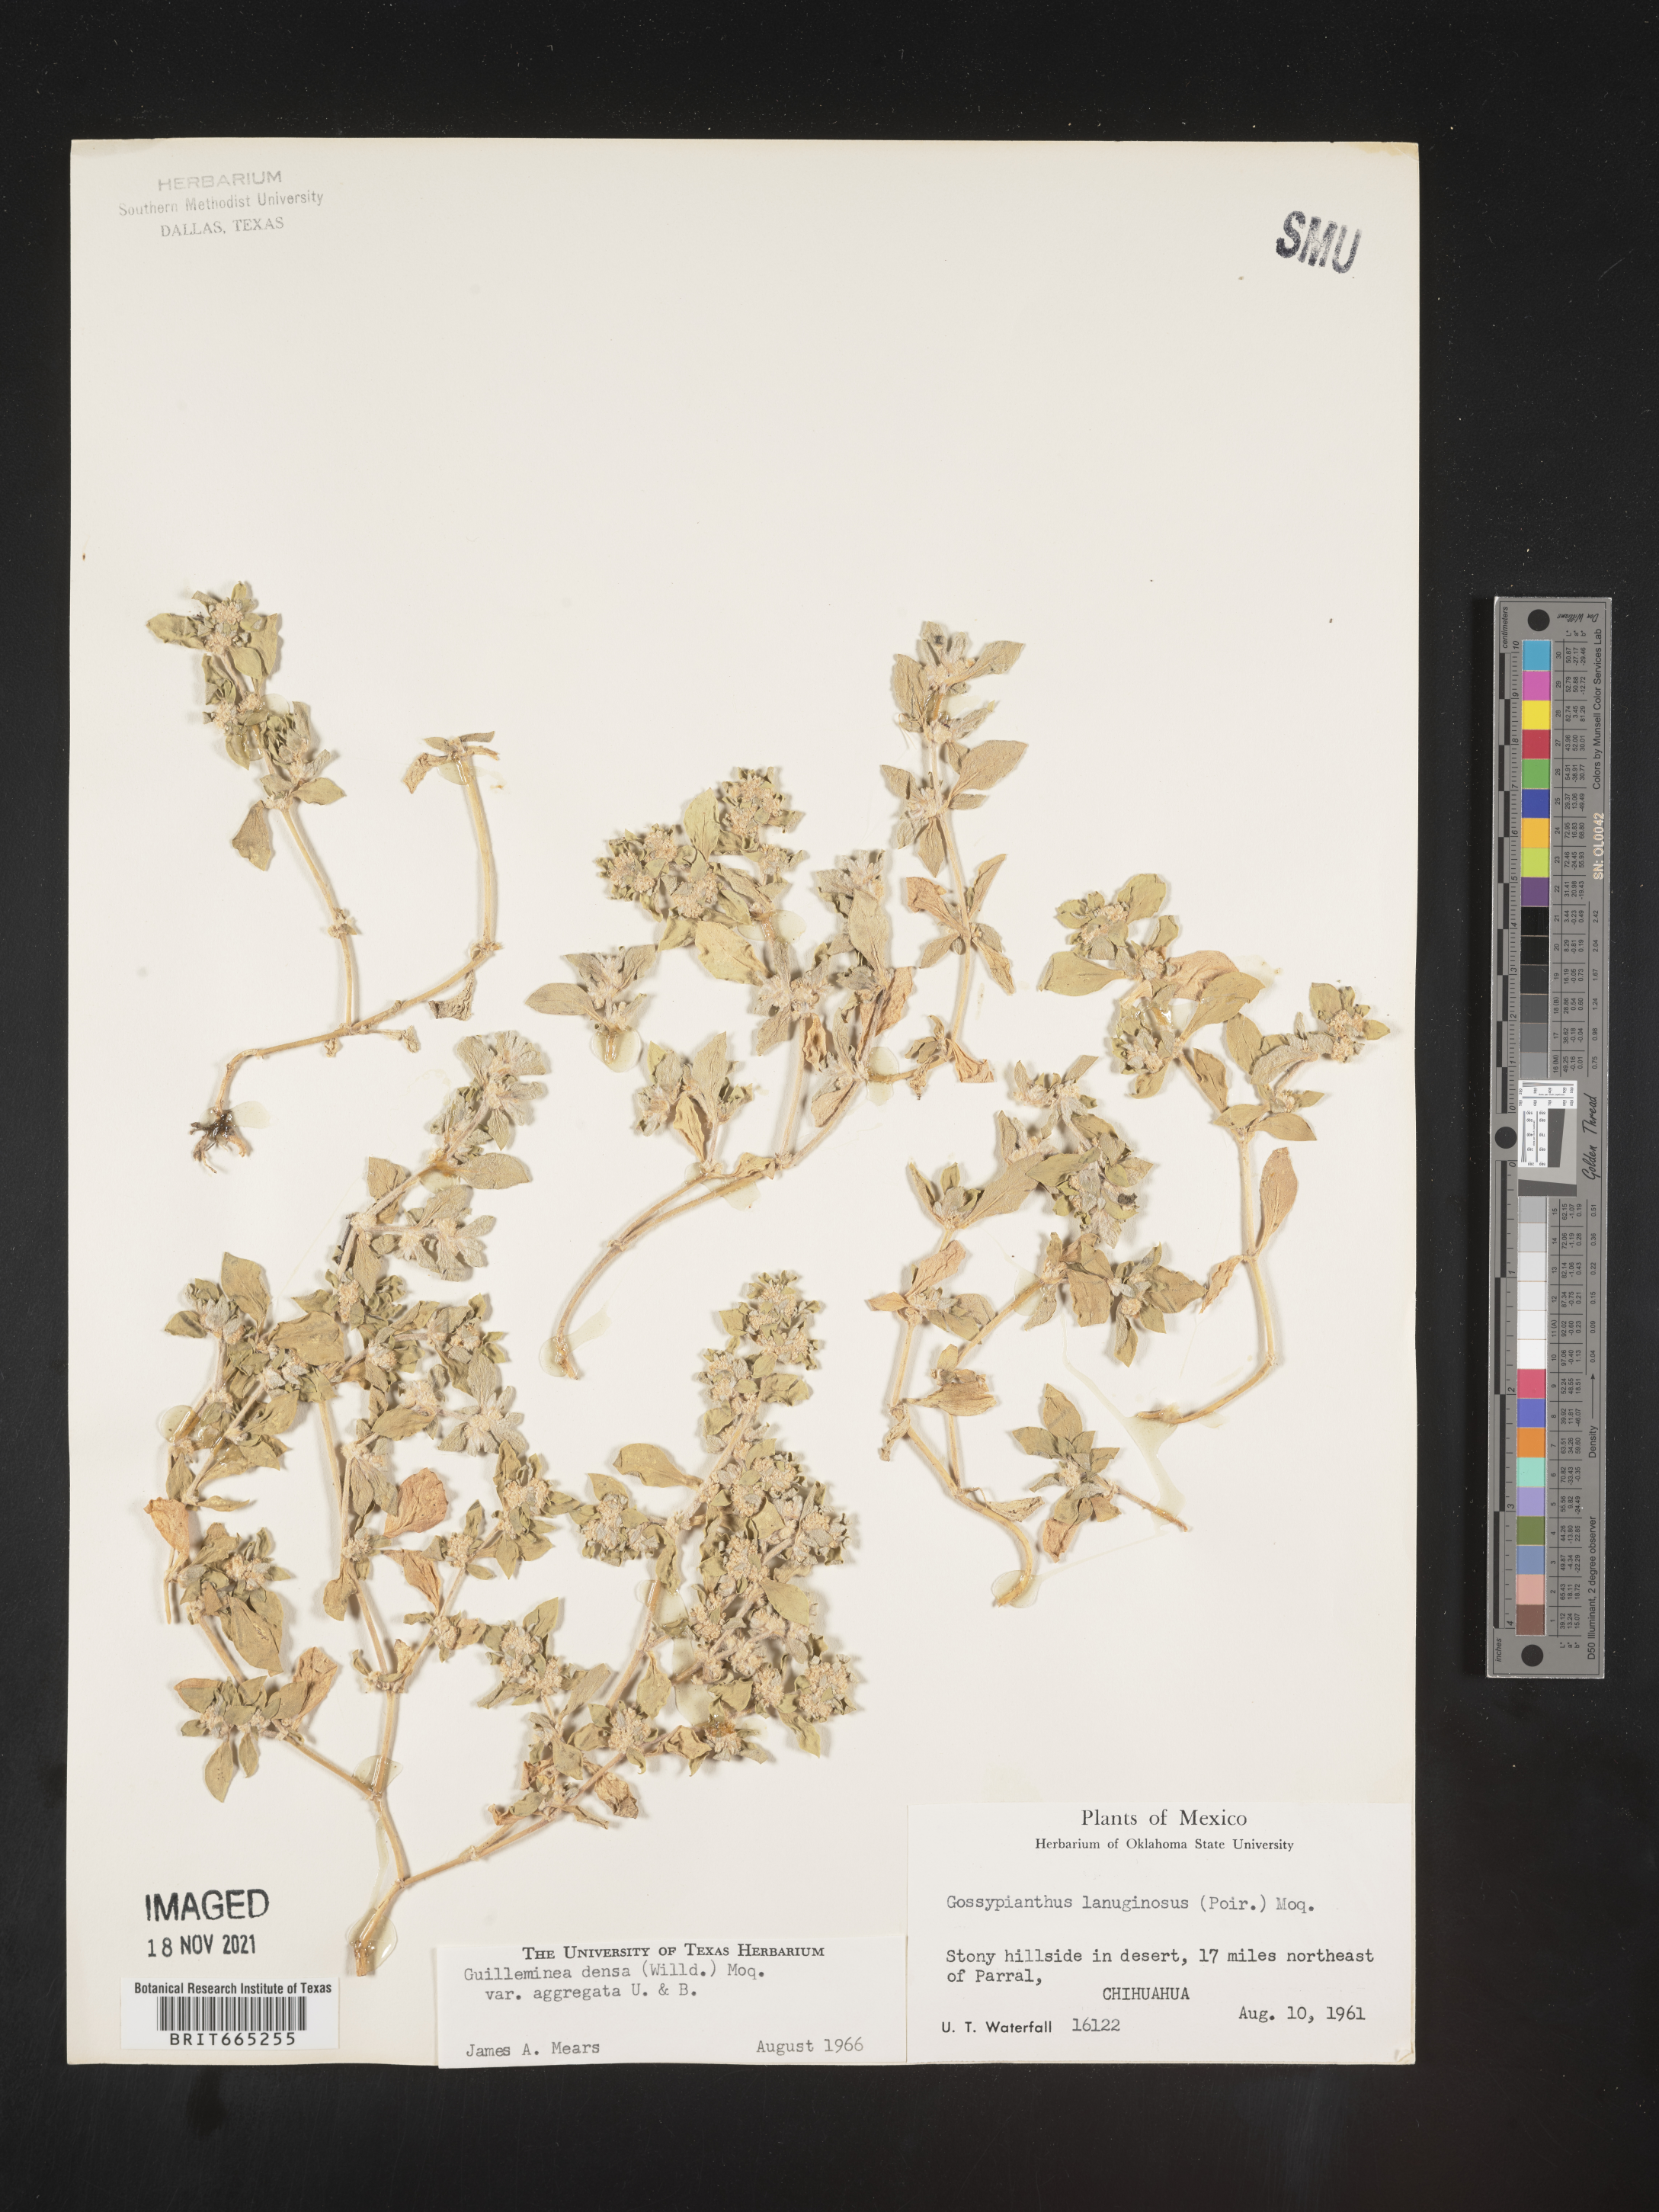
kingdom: Plantae
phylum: Tracheophyta
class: Magnoliopsida
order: Caryophyllales
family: Amaranthaceae
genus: Guilleminea
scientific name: Guilleminea densa
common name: Small matweed
